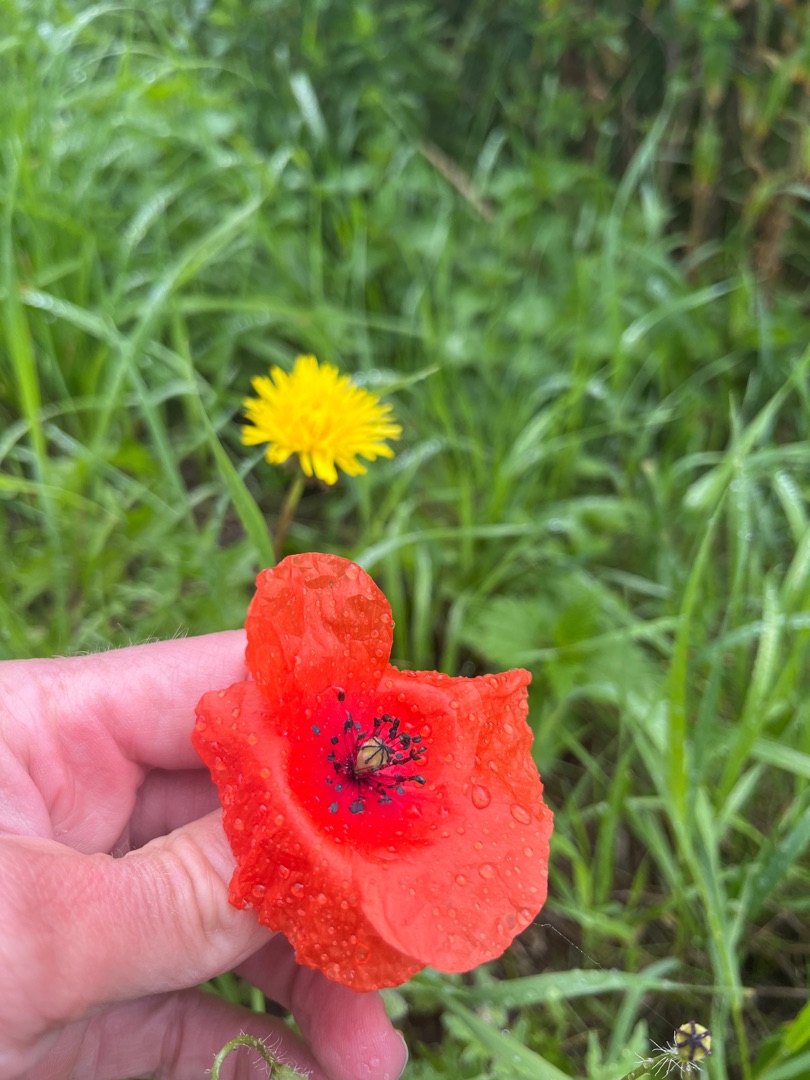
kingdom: Plantae
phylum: Tracheophyta
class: Magnoliopsida
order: Ranunculales
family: Papaveraceae
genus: Papaver
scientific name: Papaver rhoeas
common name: Korn-valmue
